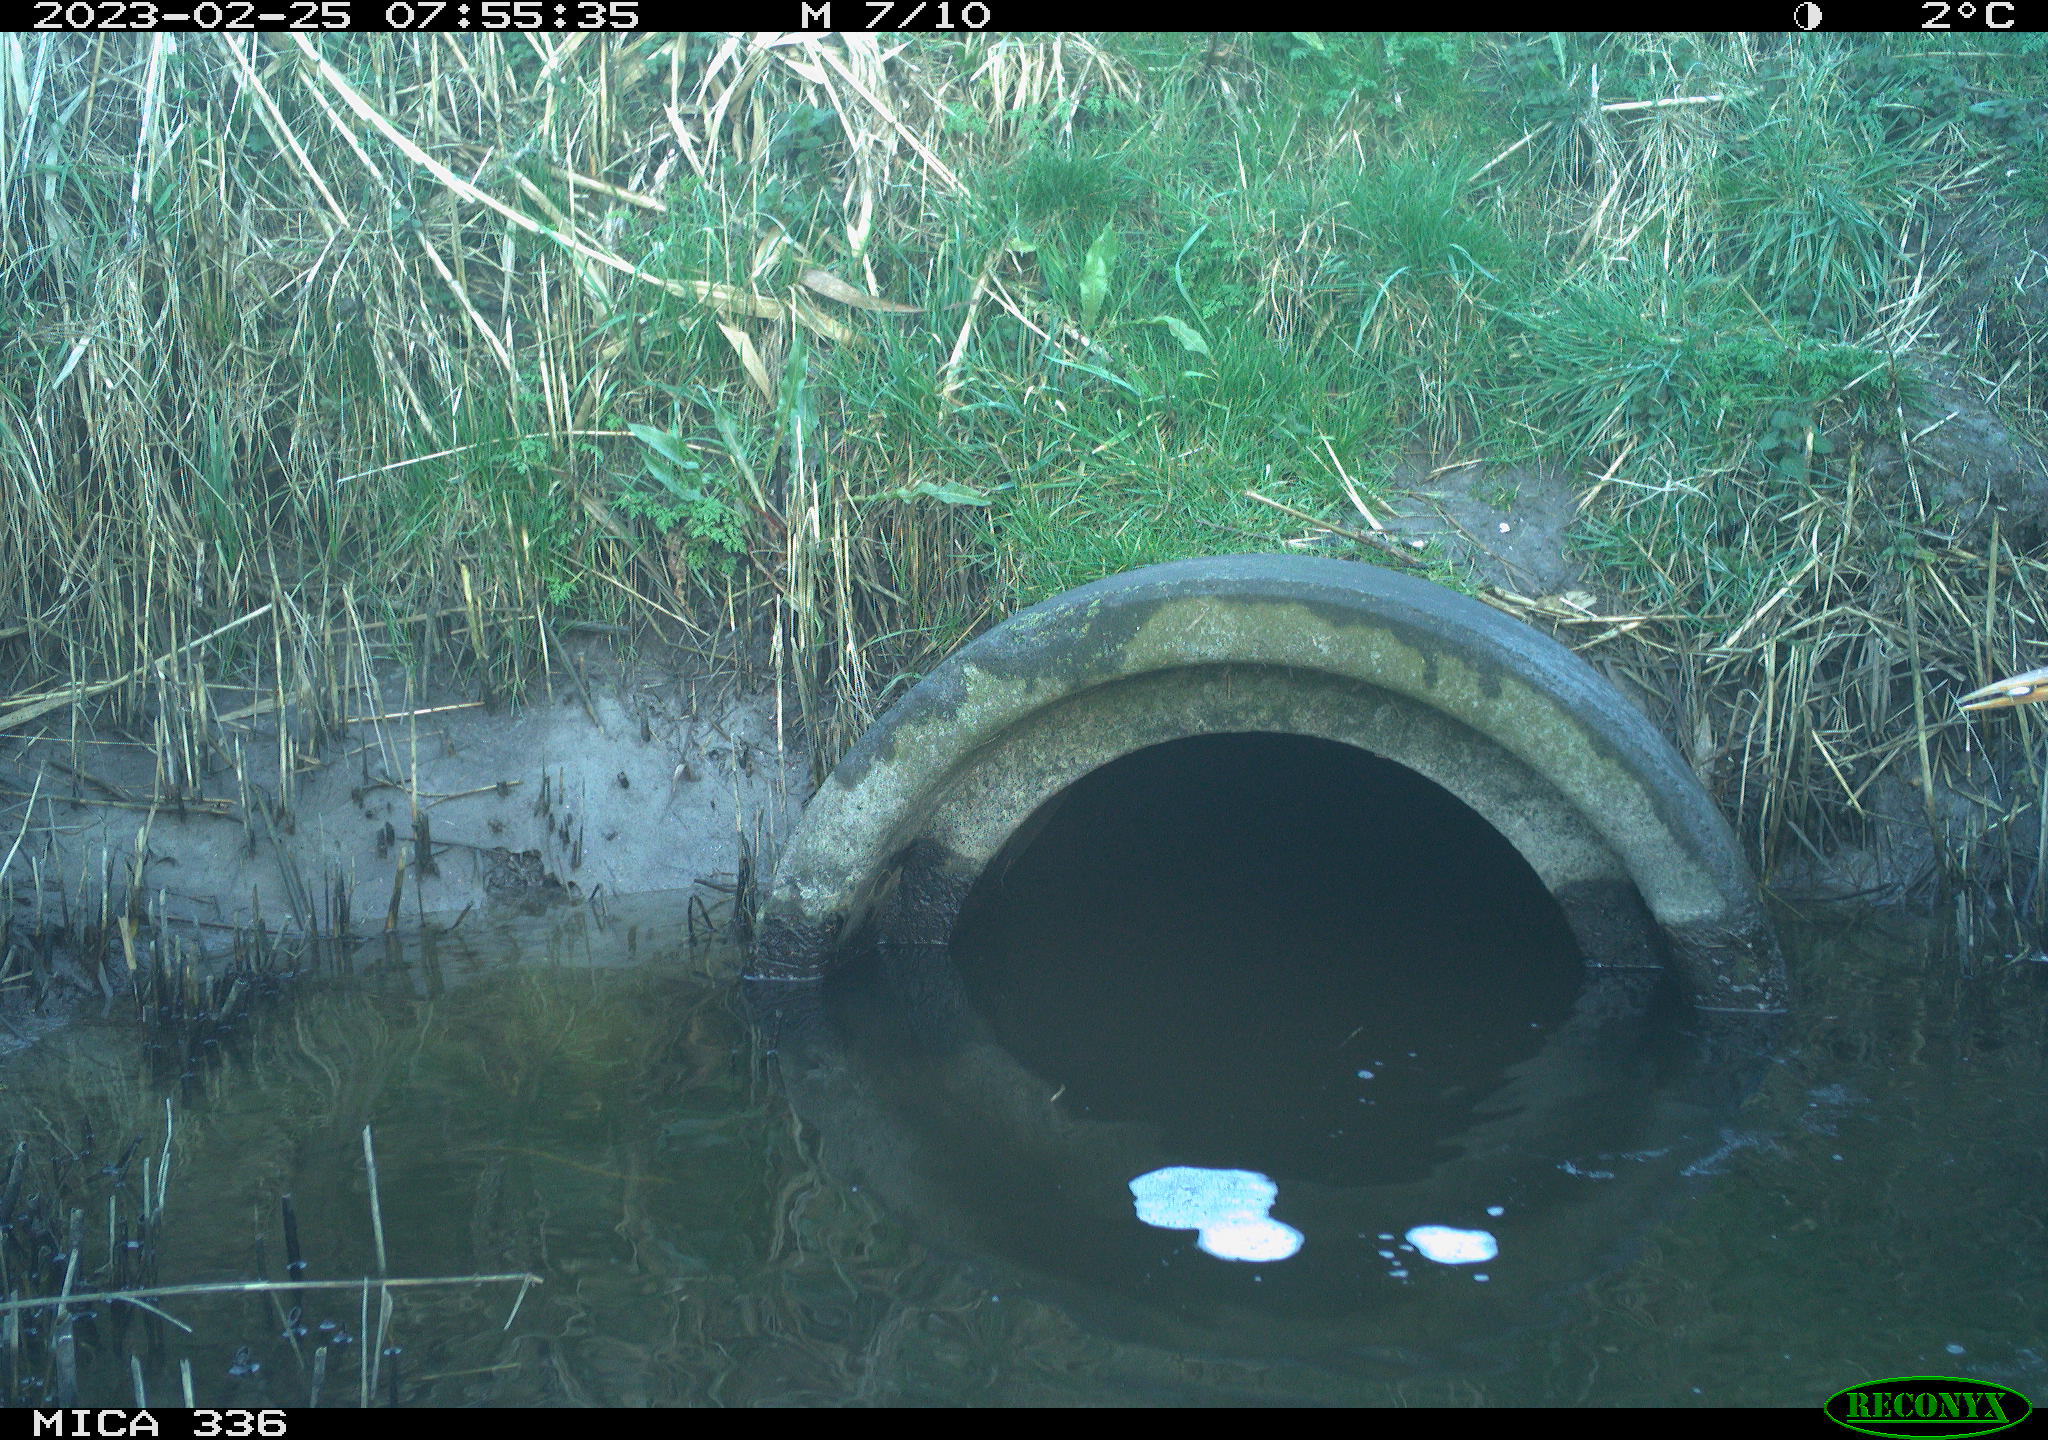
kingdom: Animalia
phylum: Chordata
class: Aves
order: Pelecaniformes
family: Ardeidae
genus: Ardea
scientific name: Ardea cinerea
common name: Grey heron
